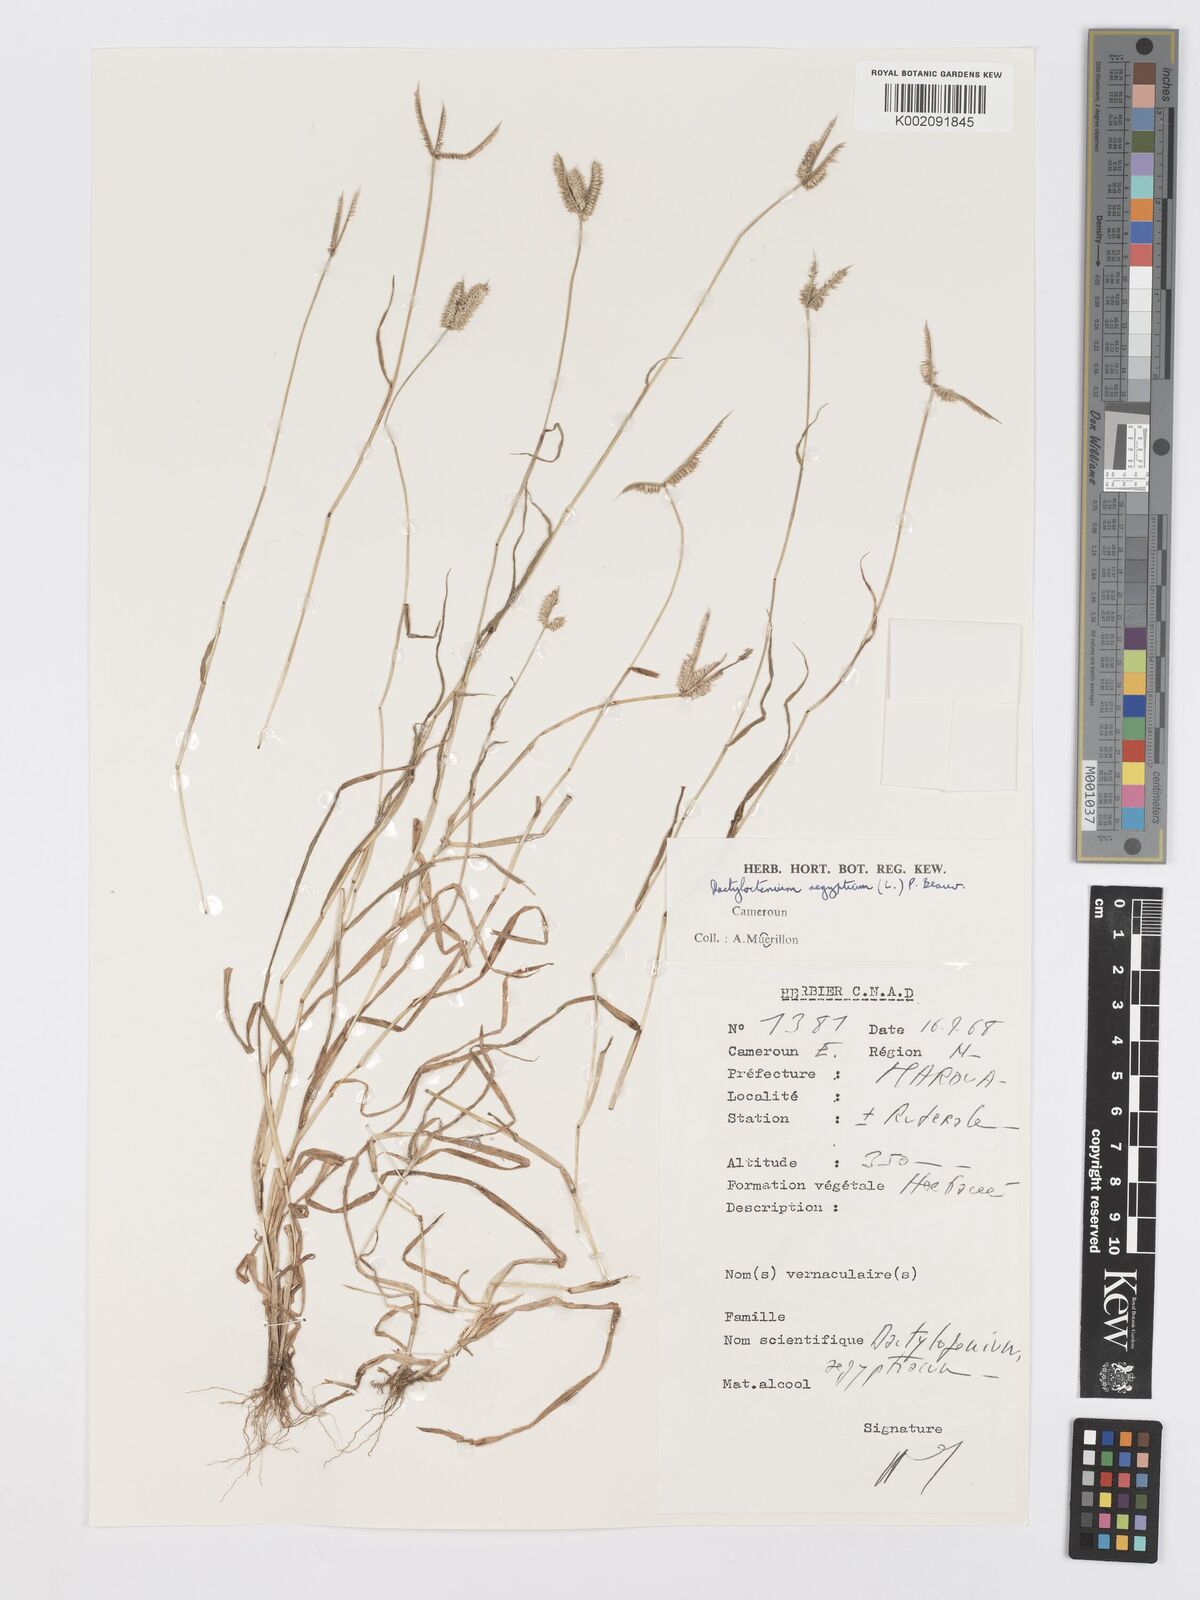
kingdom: Plantae
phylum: Tracheophyta
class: Liliopsida
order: Poales
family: Poaceae
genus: Dactyloctenium
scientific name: Dactyloctenium aegyptium
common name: Egyptian grass
